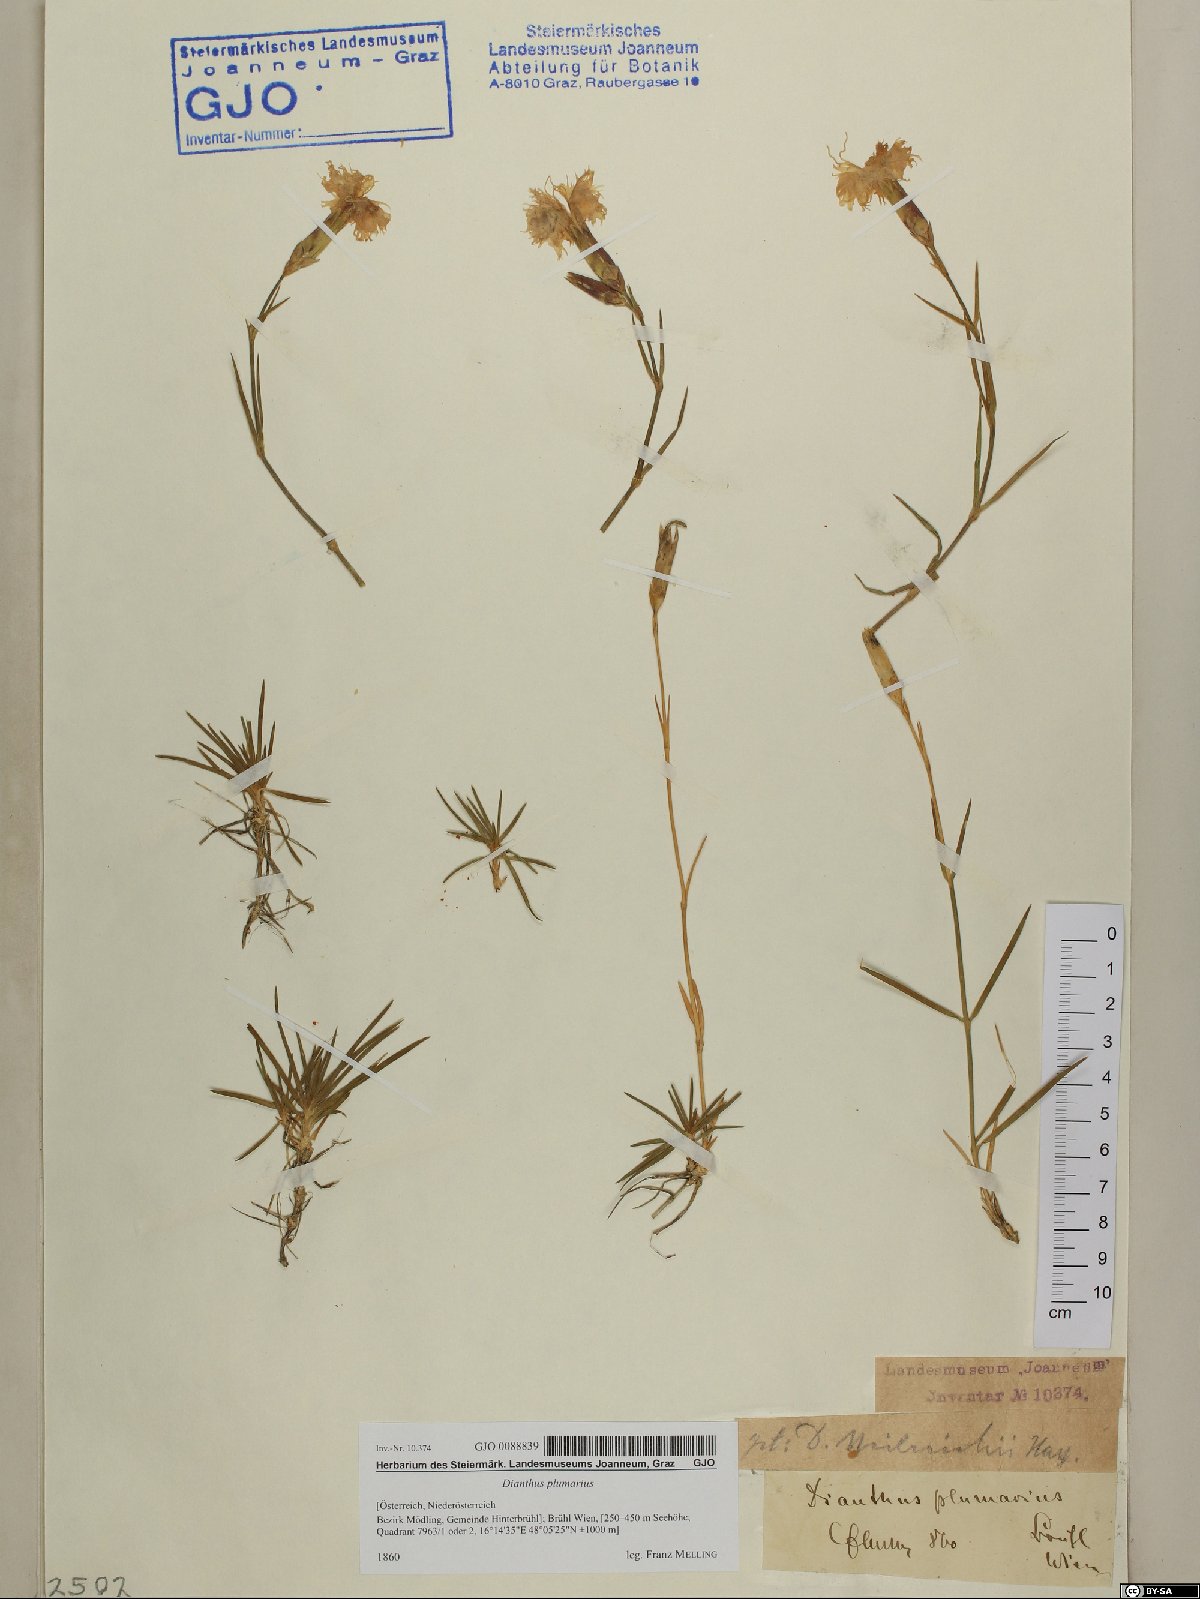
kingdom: Plantae
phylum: Tracheophyta
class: Magnoliopsida
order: Caryophyllales
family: Caryophyllaceae
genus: Dianthus
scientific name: Dianthus plumarius
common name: Pink
